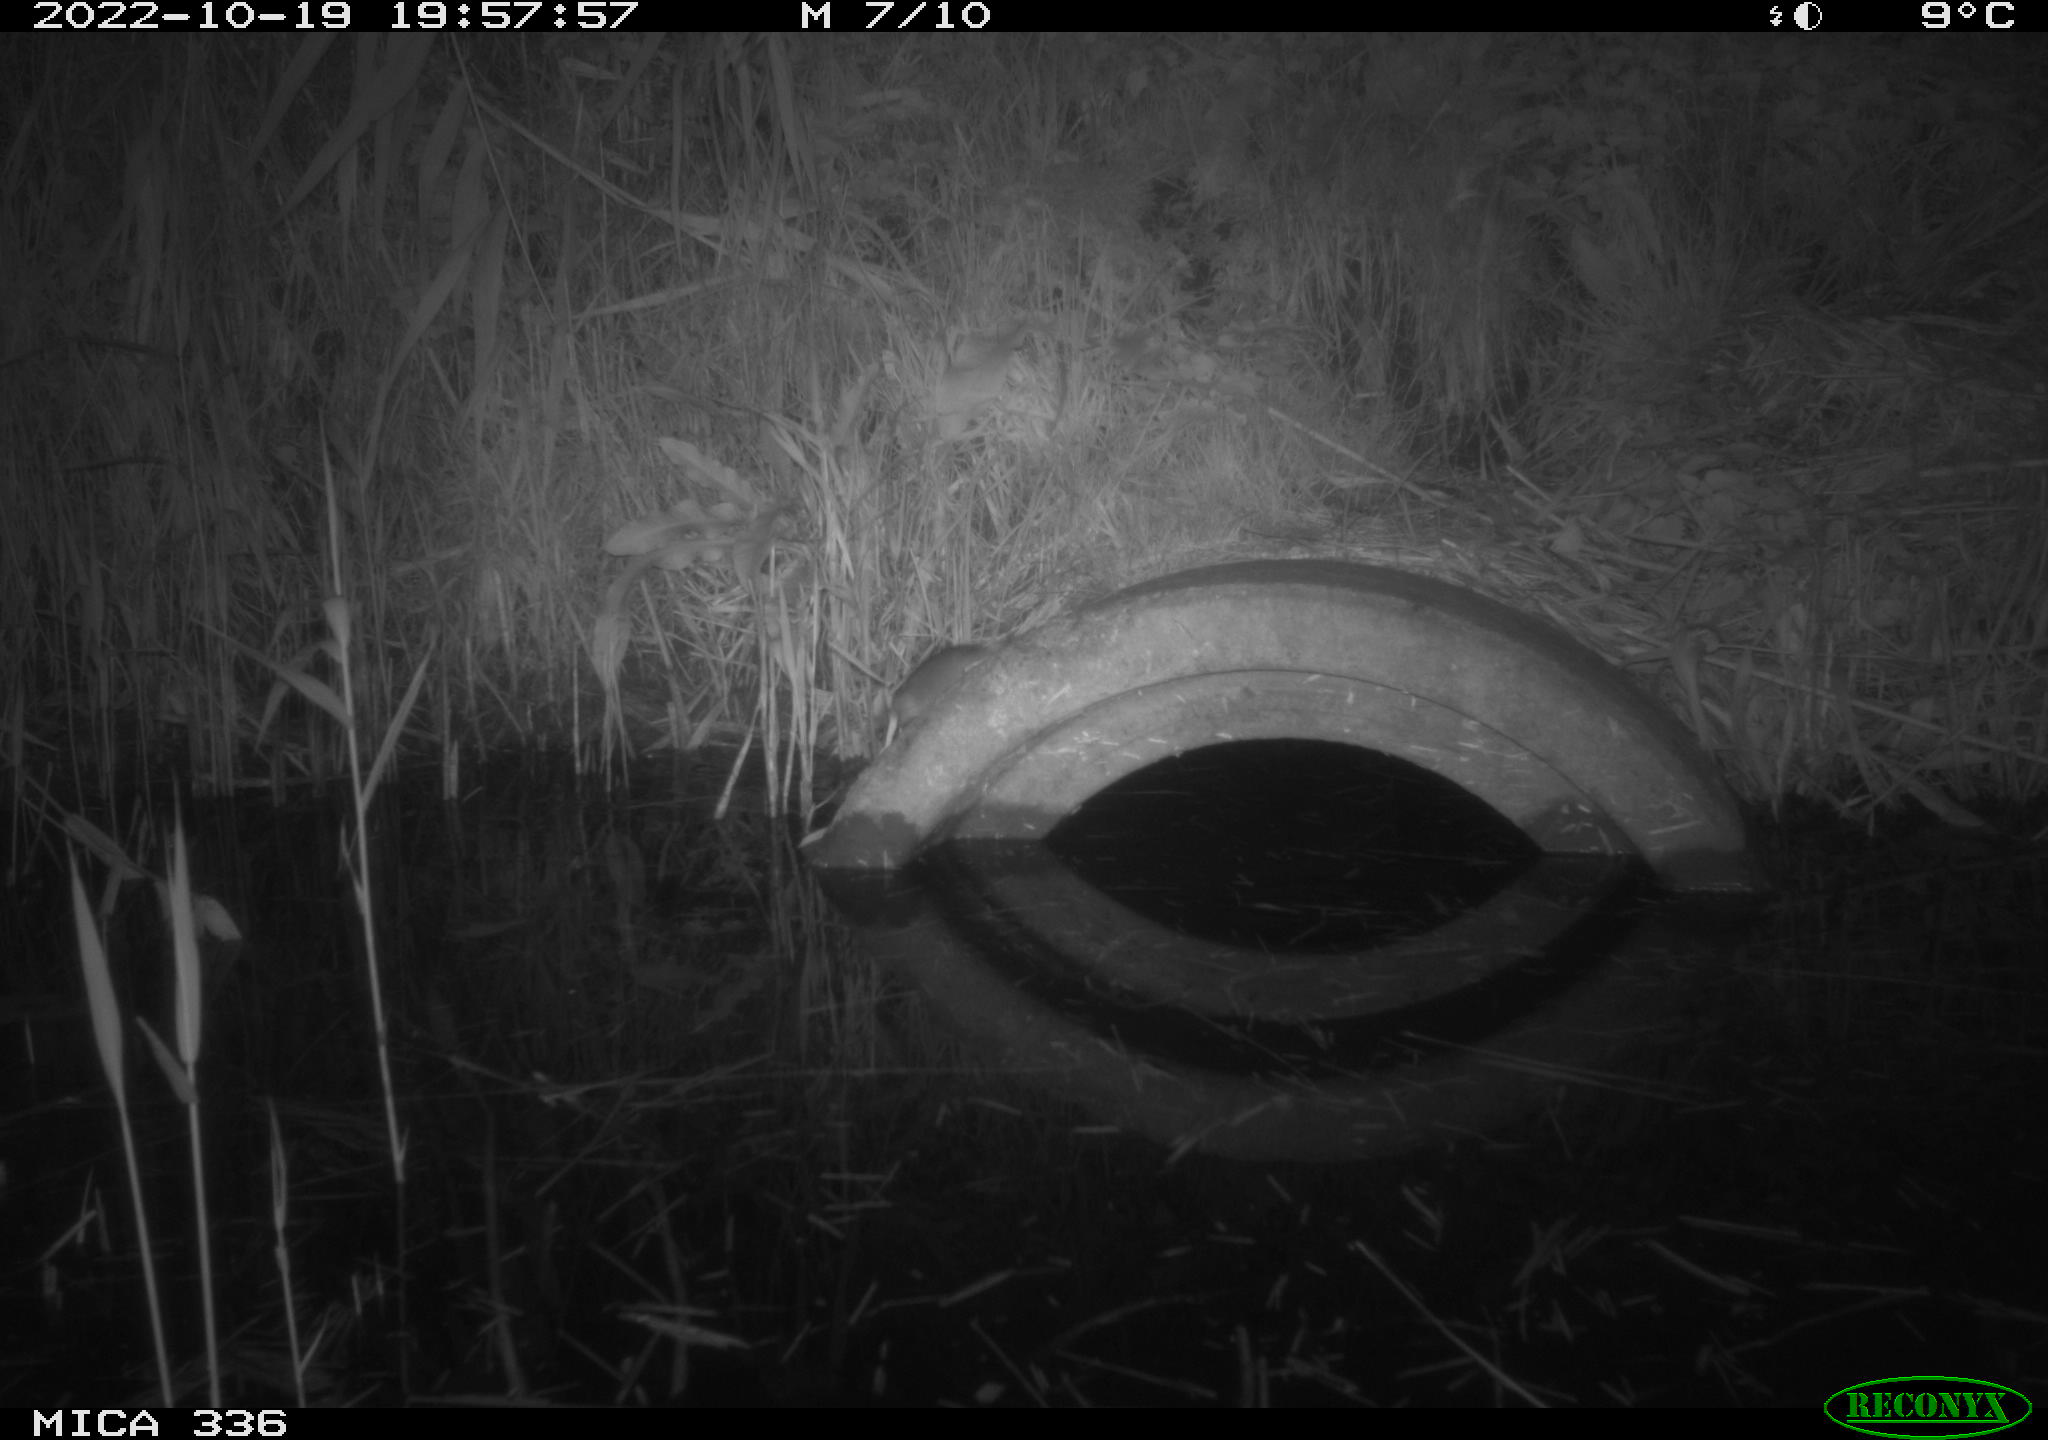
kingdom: Animalia
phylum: Chordata
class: Mammalia
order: Rodentia
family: Muridae
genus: Rattus
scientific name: Rattus norvegicus
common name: Brown rat
